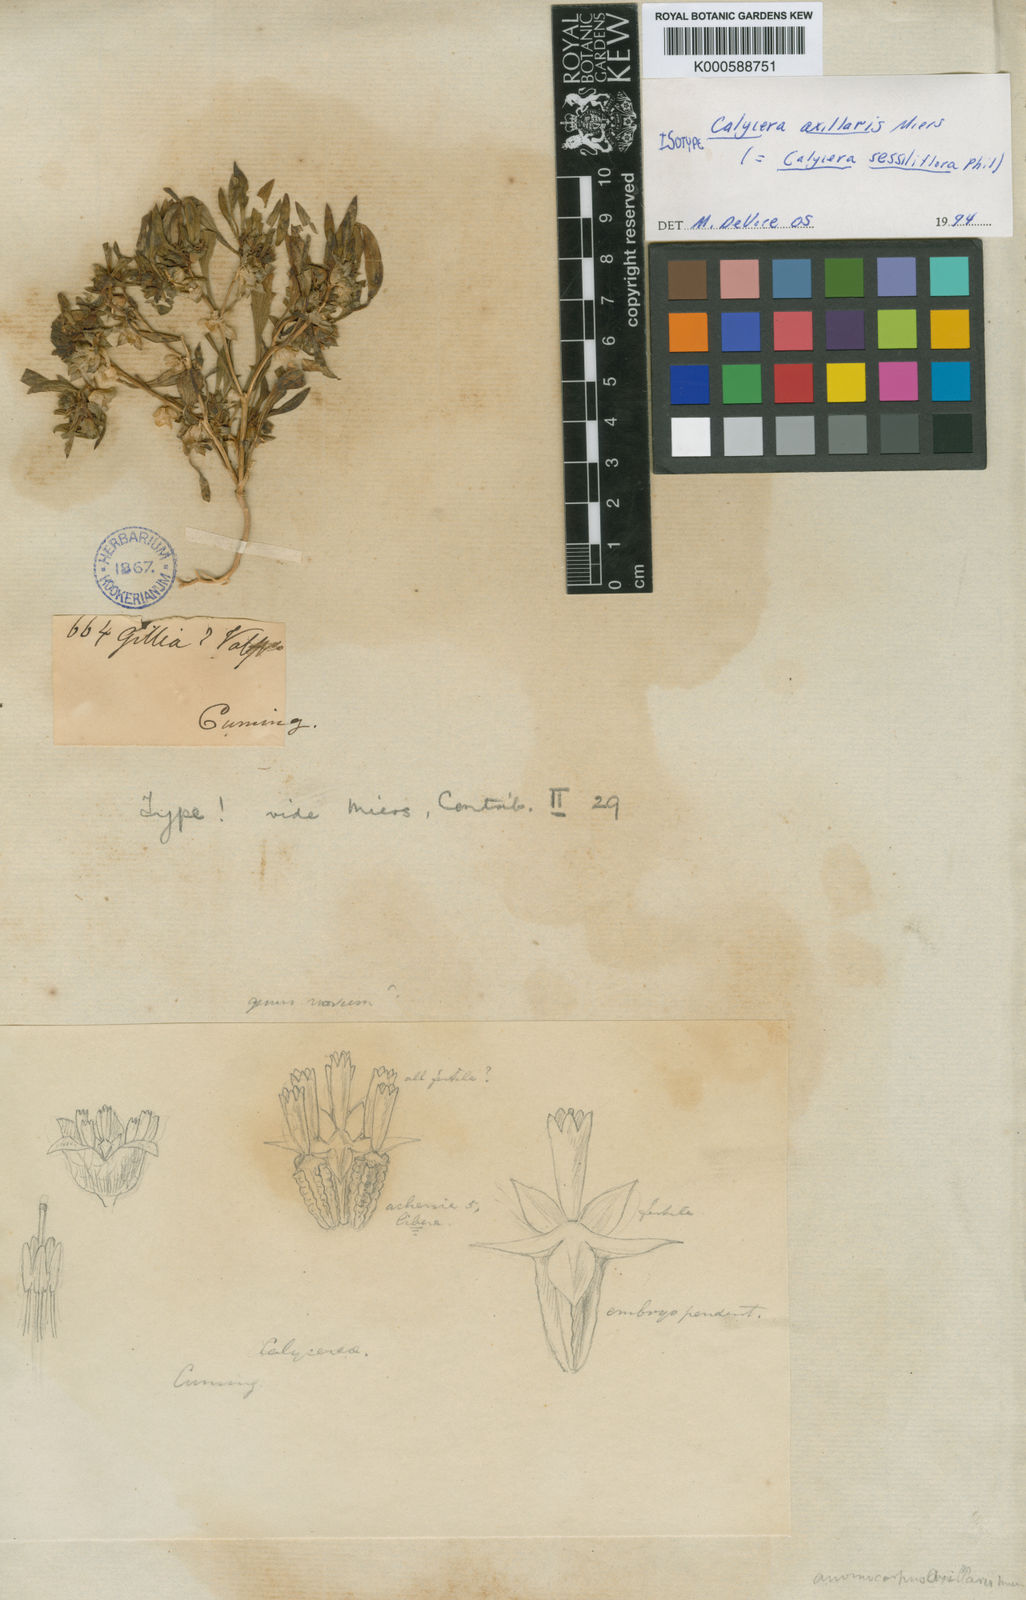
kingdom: Plantae
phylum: Tracheophyta
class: Magnoliopsida
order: Asterales
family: Calyceraceae
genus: Calycera
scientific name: Calycera
